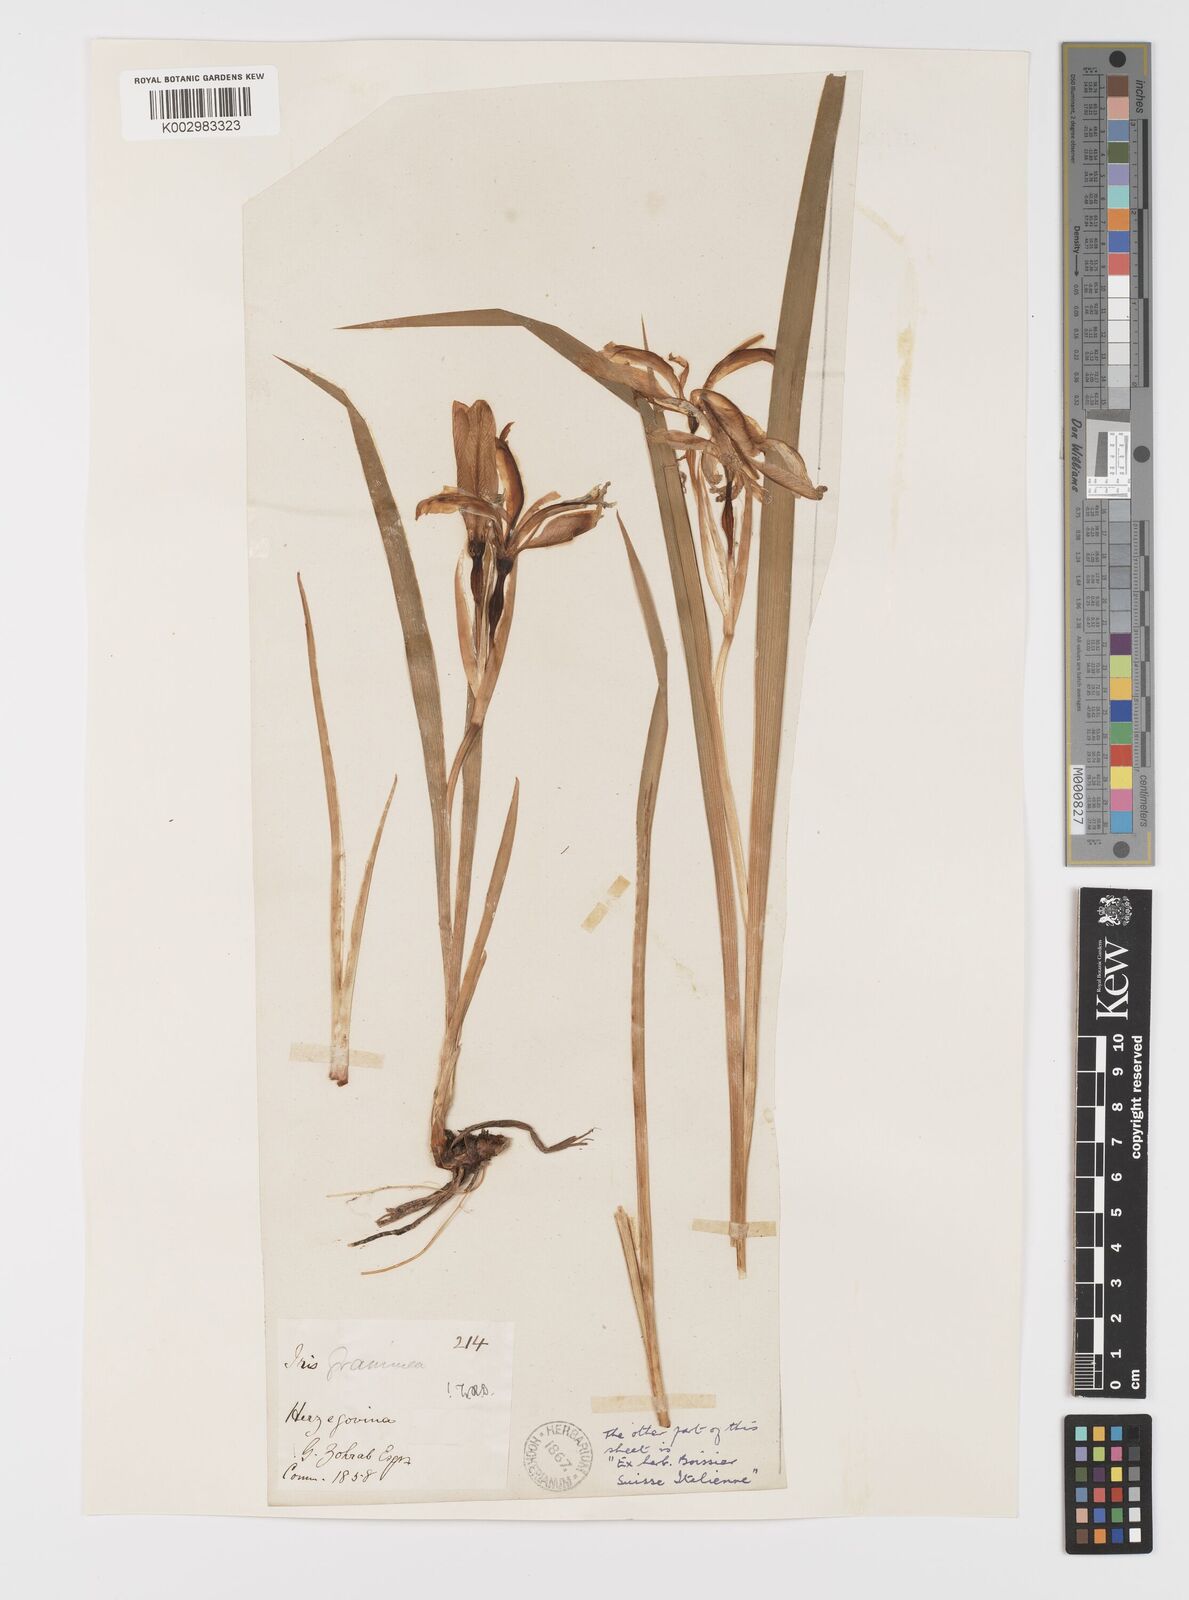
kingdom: Plantae
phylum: Tracheophyta
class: Liliopsida
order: Asparagales
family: Iridaceae
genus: Iris
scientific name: Iris graminea
